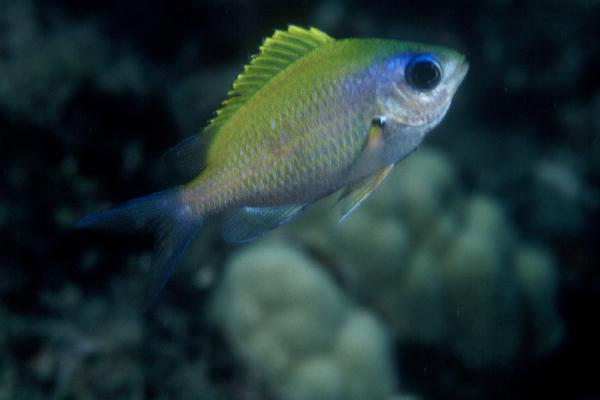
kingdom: Animalia
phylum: Chordata
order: Perciformes
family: Cichlidae
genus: Tilapia
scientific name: Tilapia sparrmanii
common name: Banded tilapia
